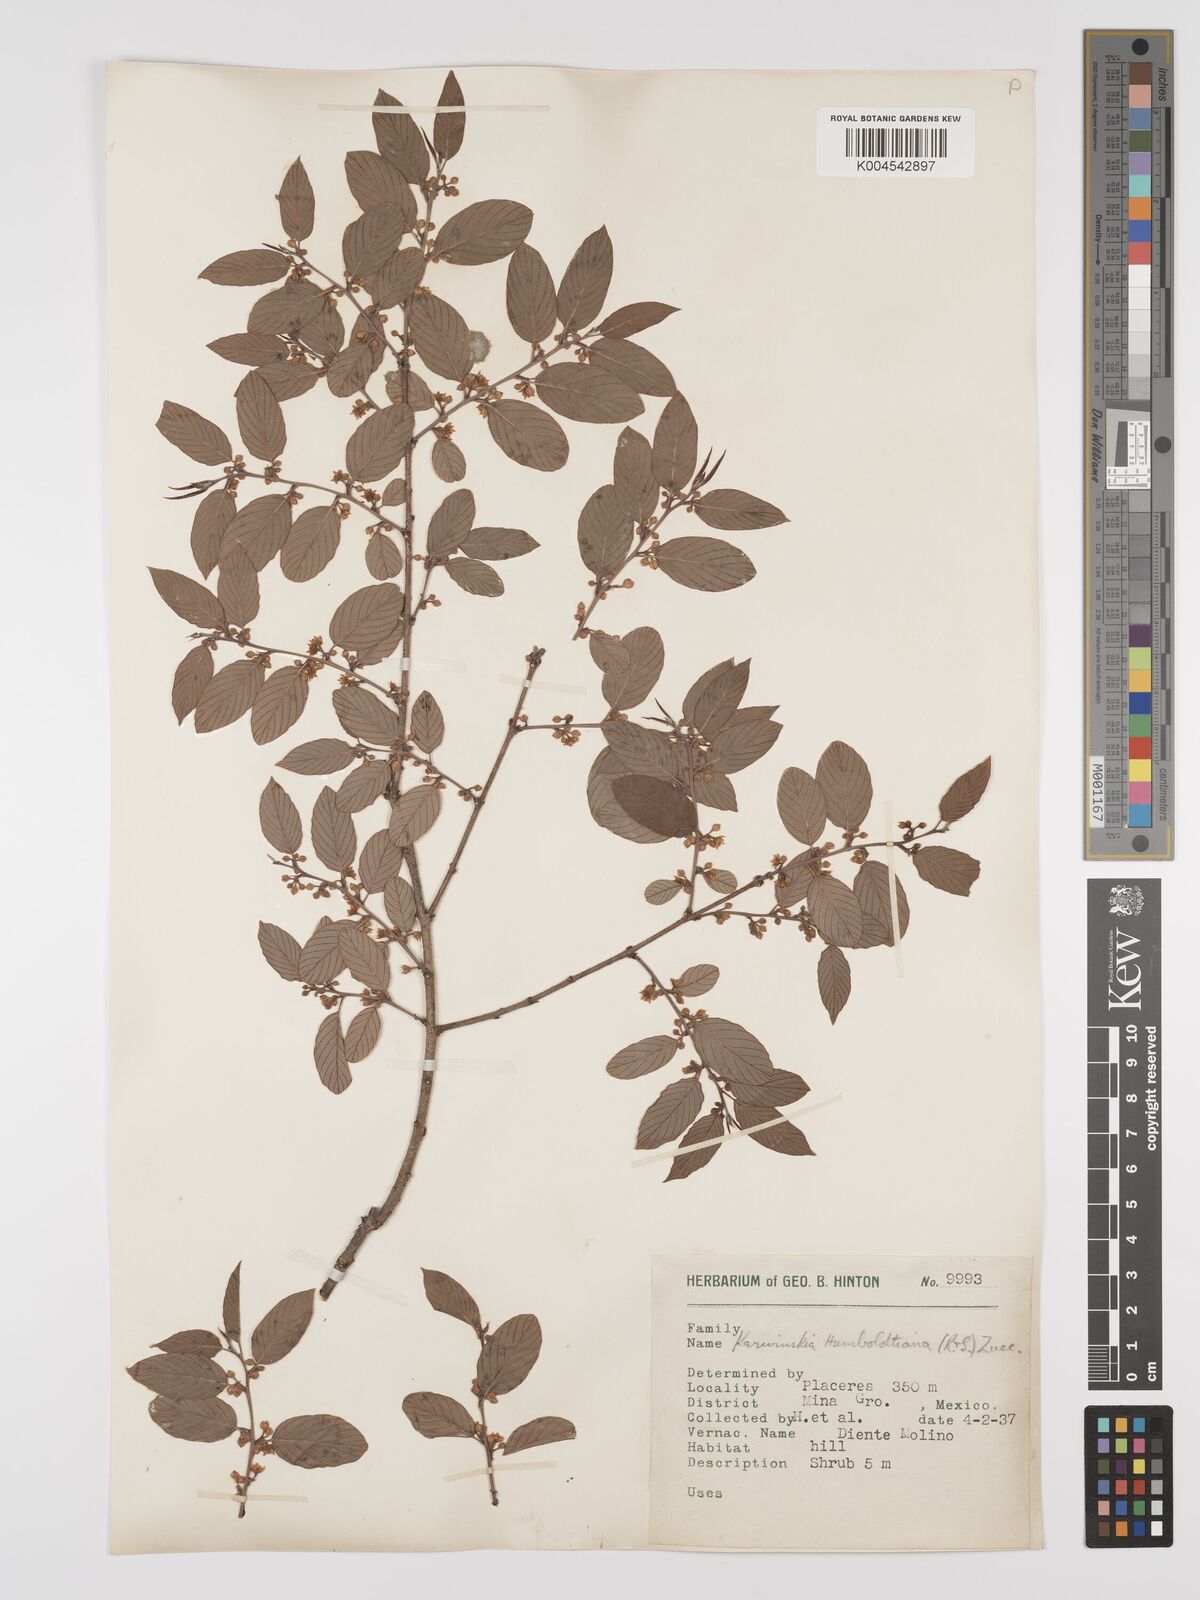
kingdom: Plantae
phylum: Tracheophyta
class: Magnoliopsida
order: Rosales
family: Rhamnaceae
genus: Karwinskia
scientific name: Karwinskia humboldtiana
